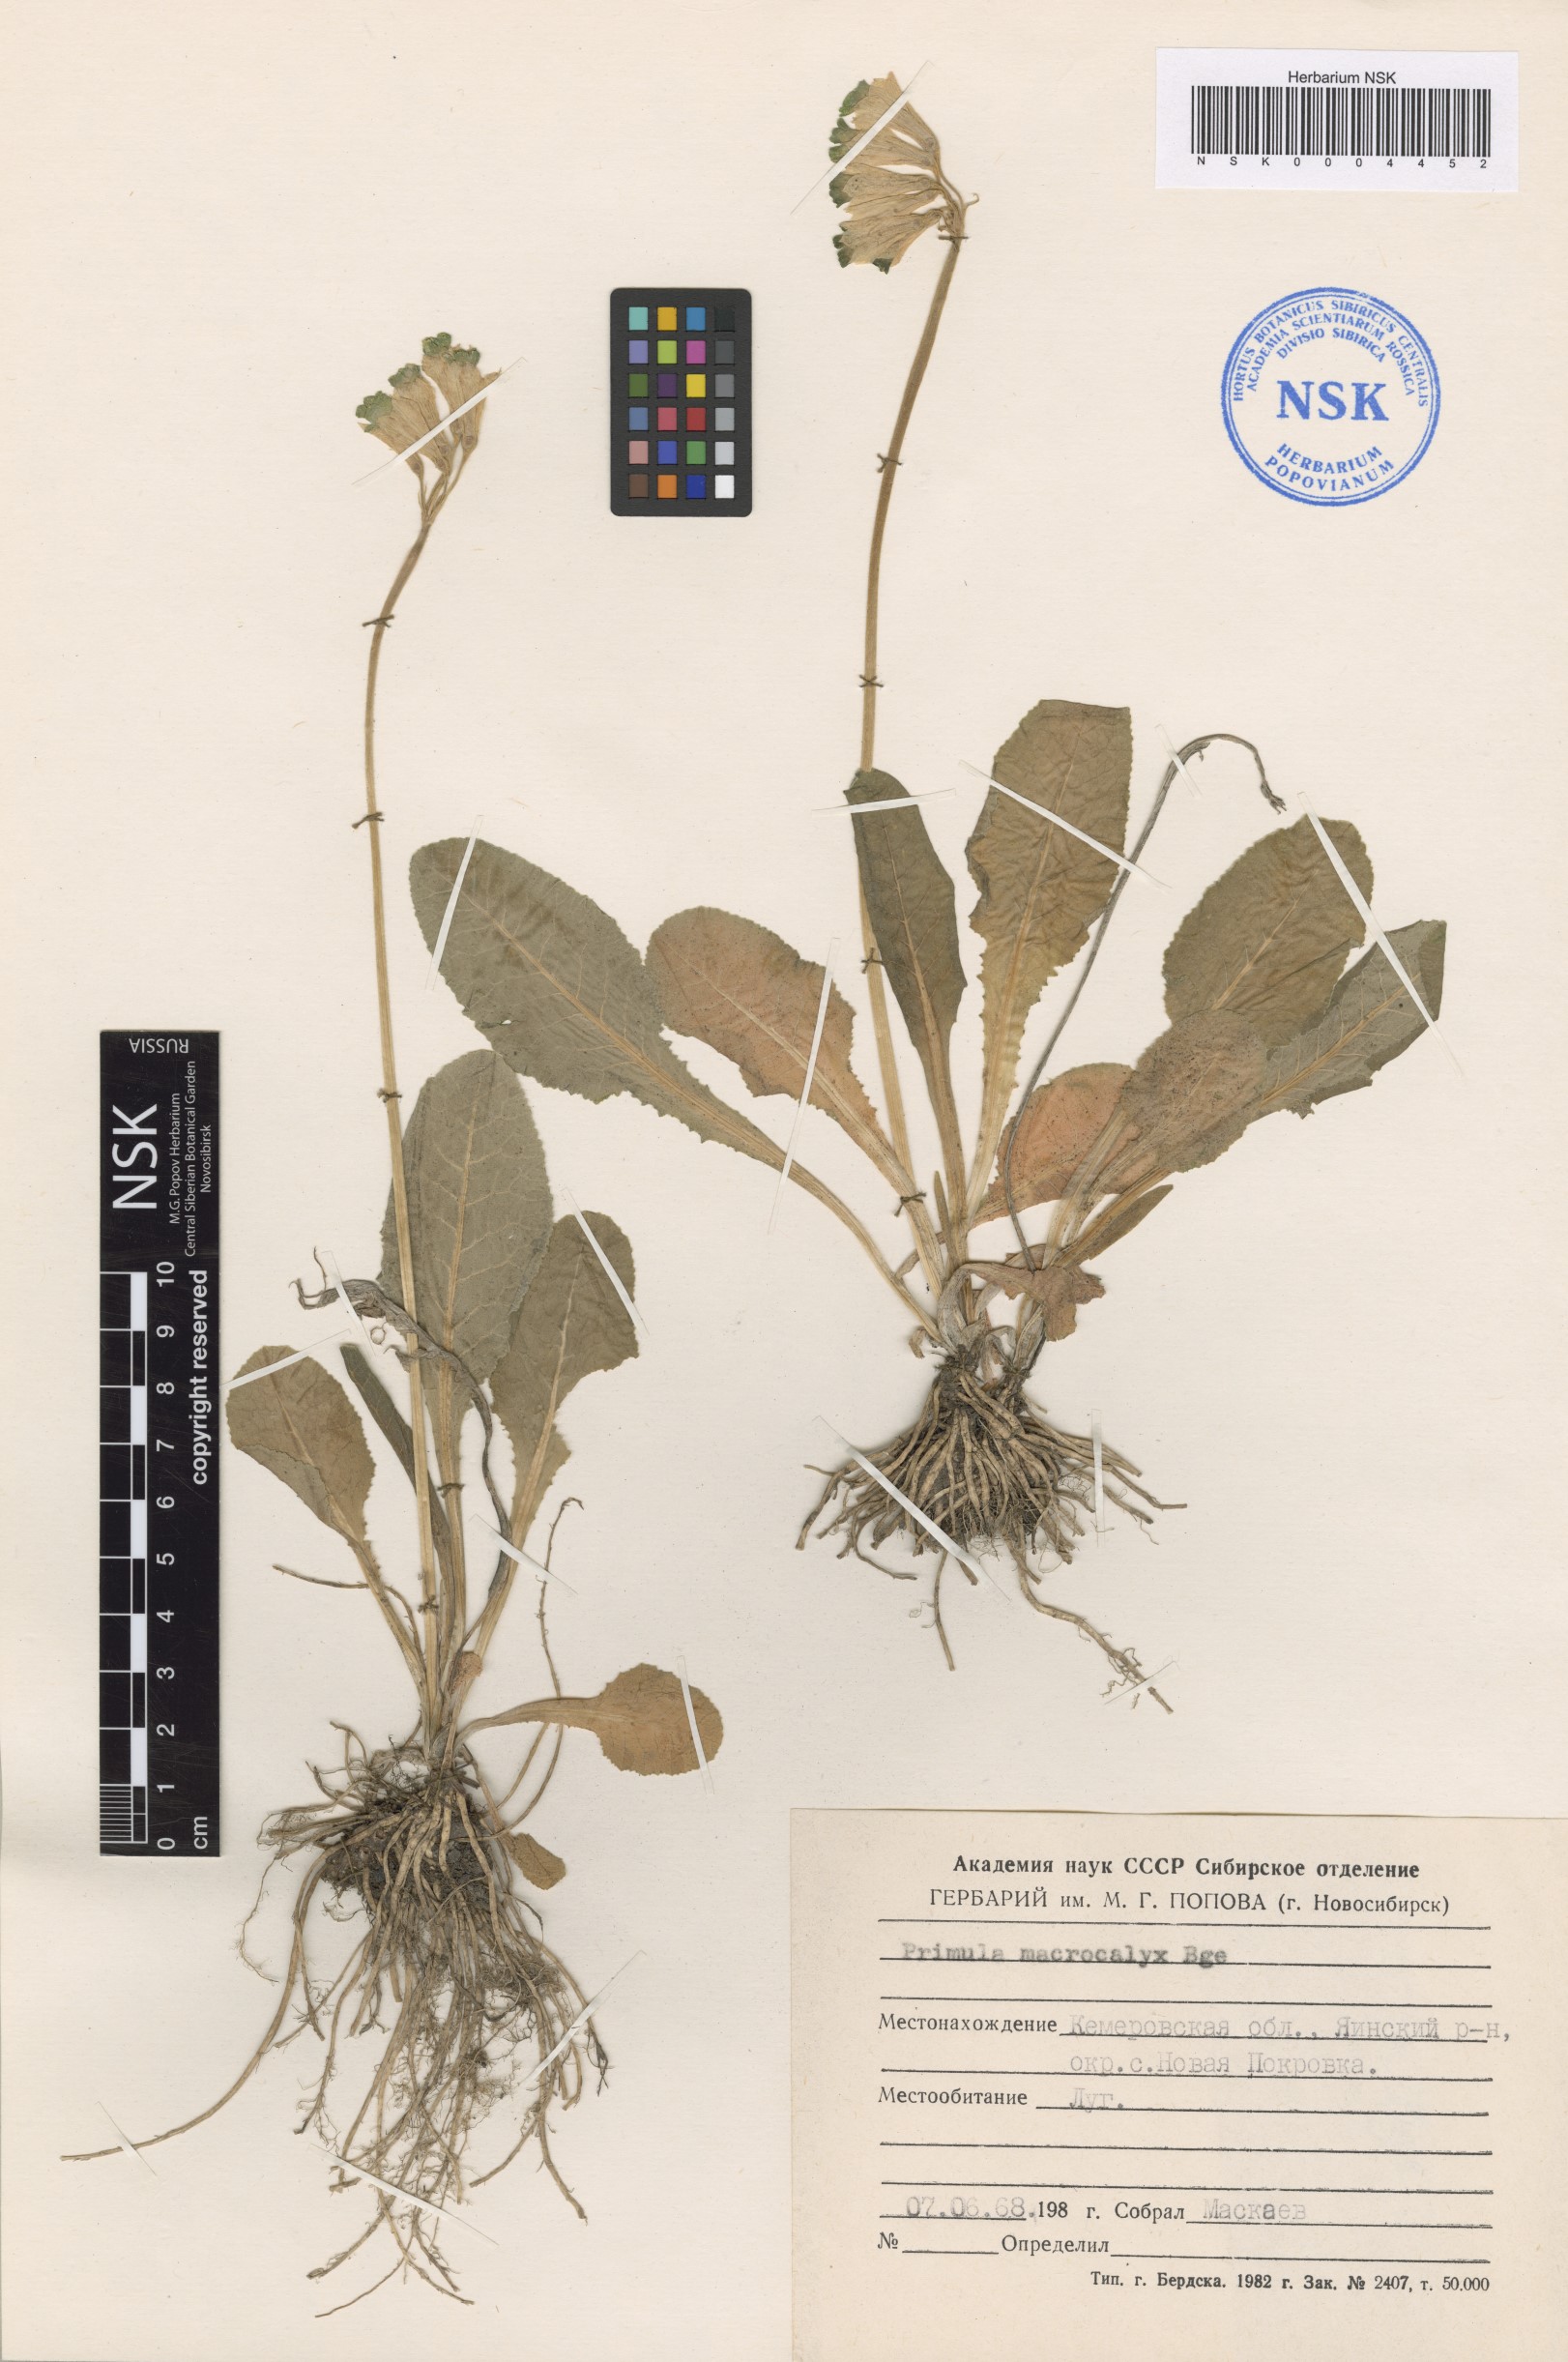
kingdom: Plantae
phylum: Tracheophyta
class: Magnoliopsida
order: Ericales
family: Primulaceae
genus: Primula
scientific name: Primula veris
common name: Cowslip
